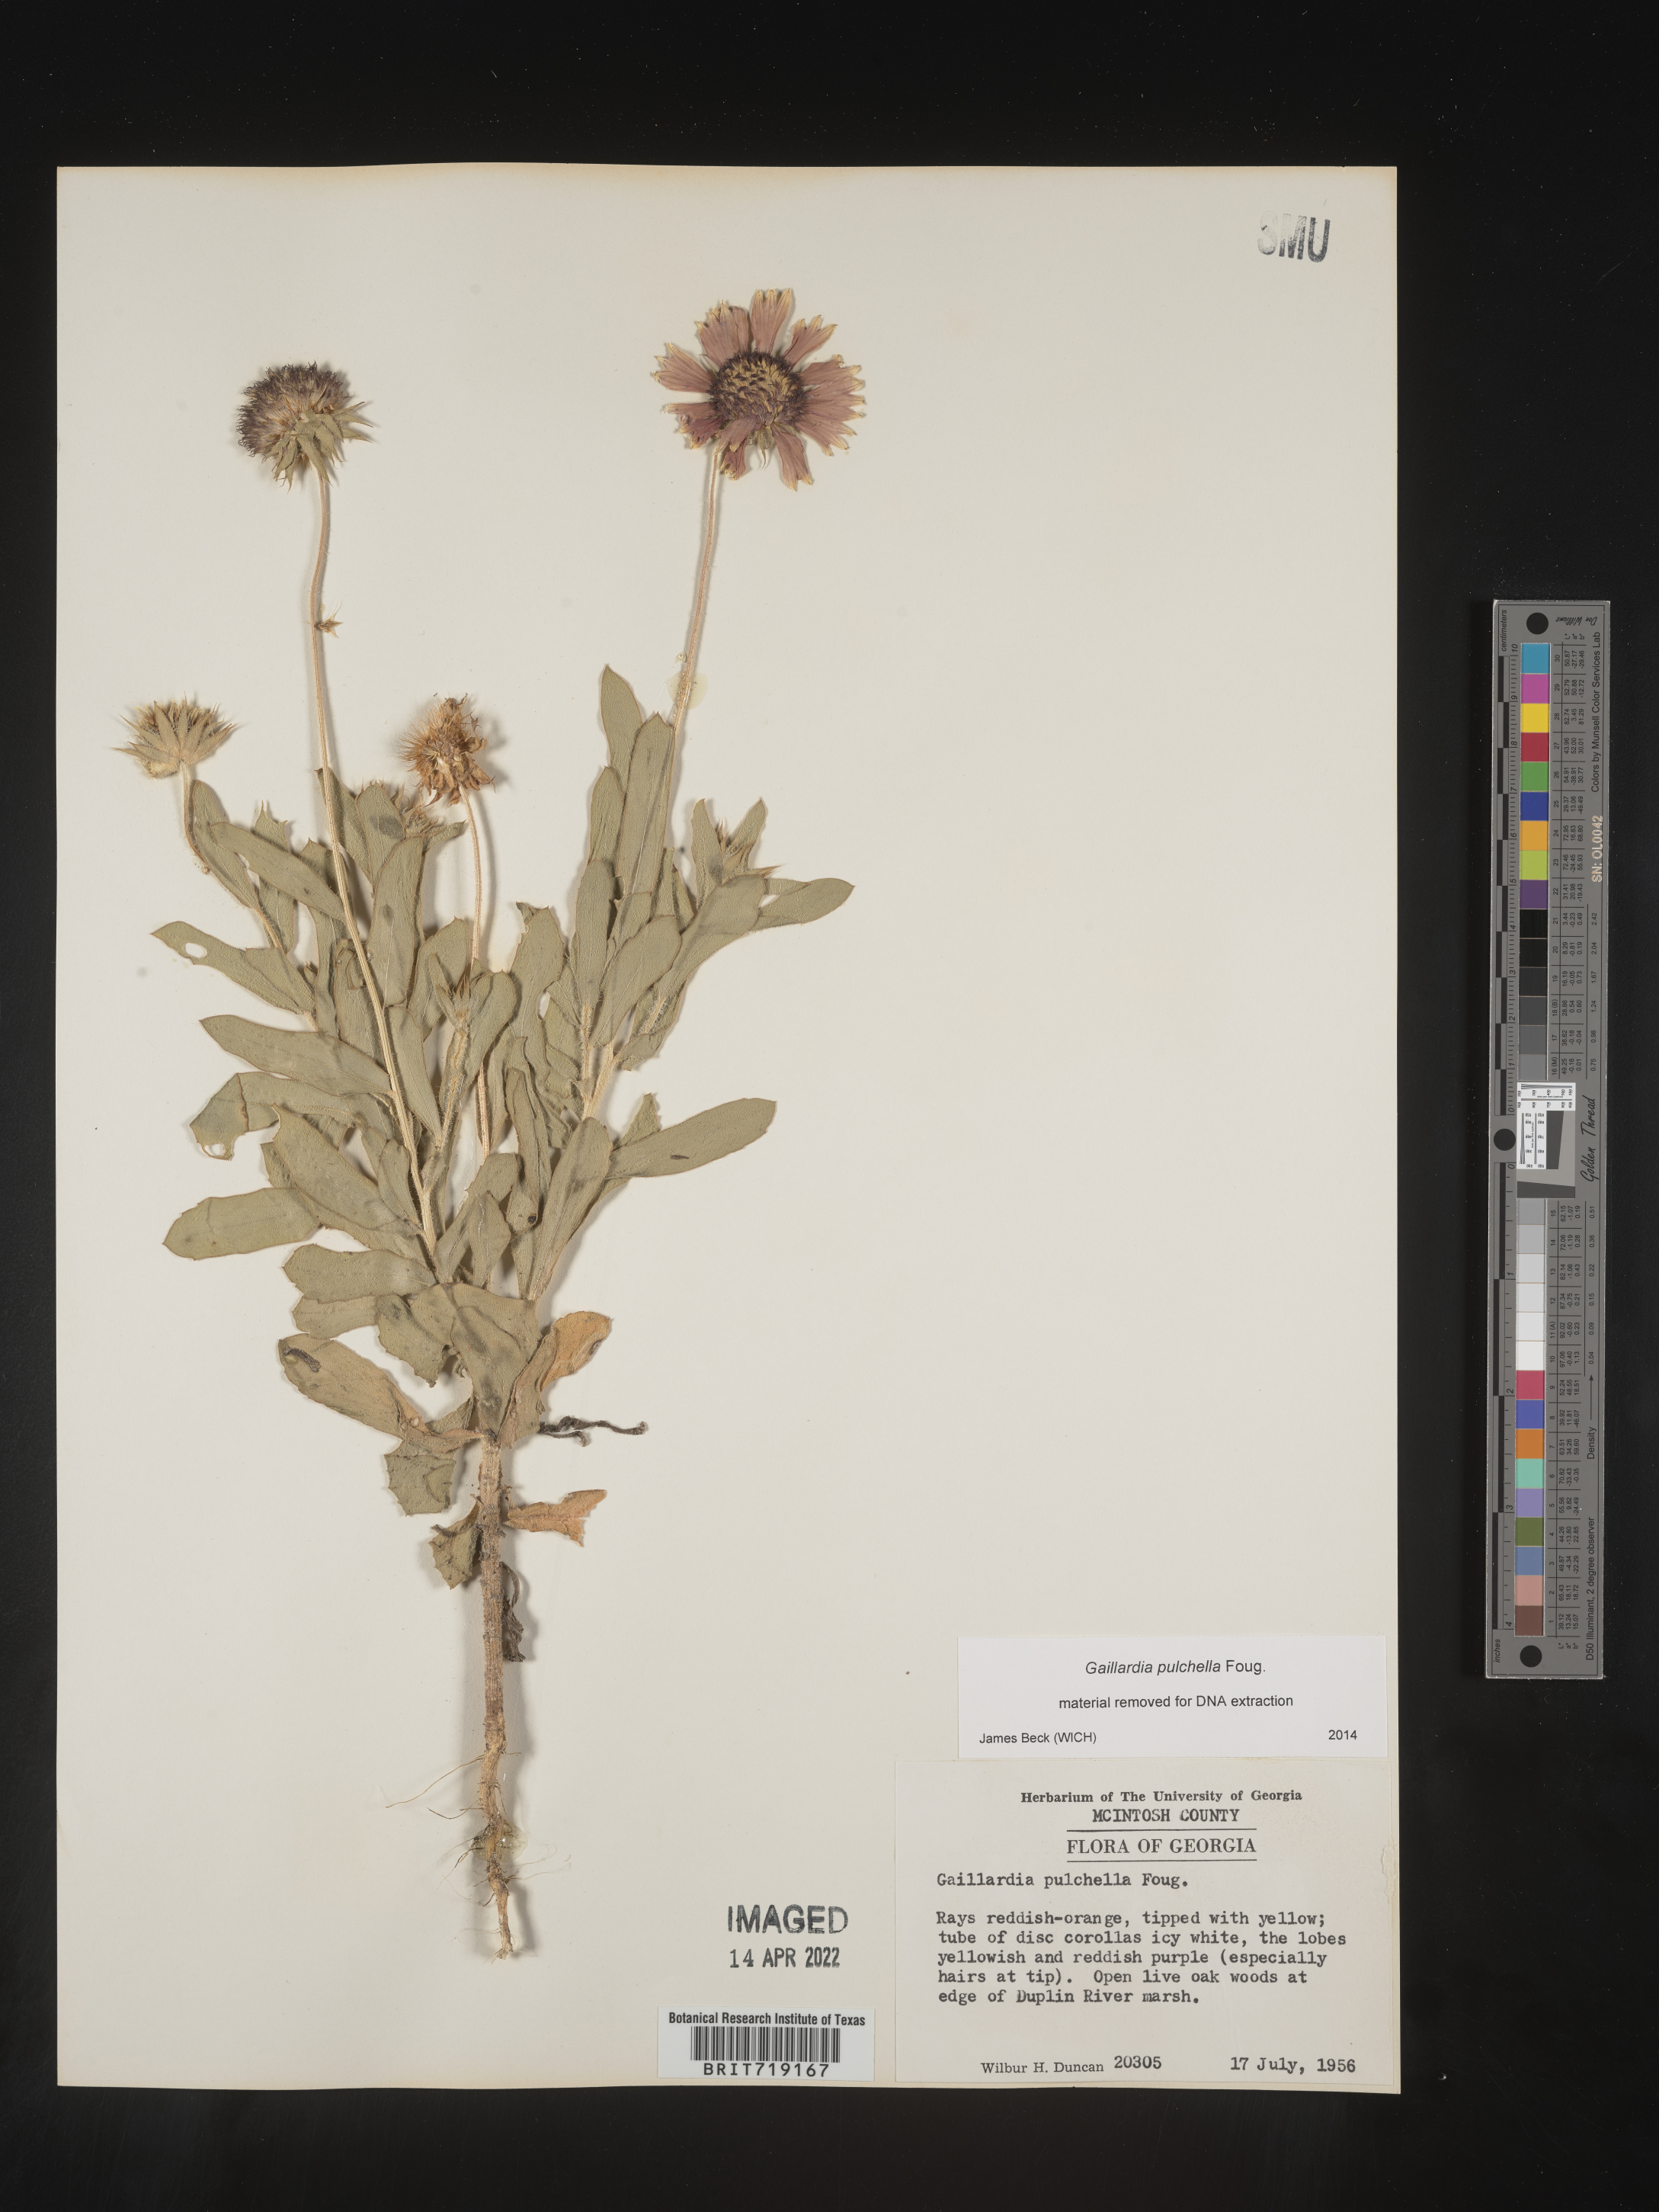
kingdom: Plantae
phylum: Tracheophyta
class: Magnoliopsida
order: Asterales
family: Asteraceae
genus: Gaillardia
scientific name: Gaillardia pulchella
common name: Firewheel
